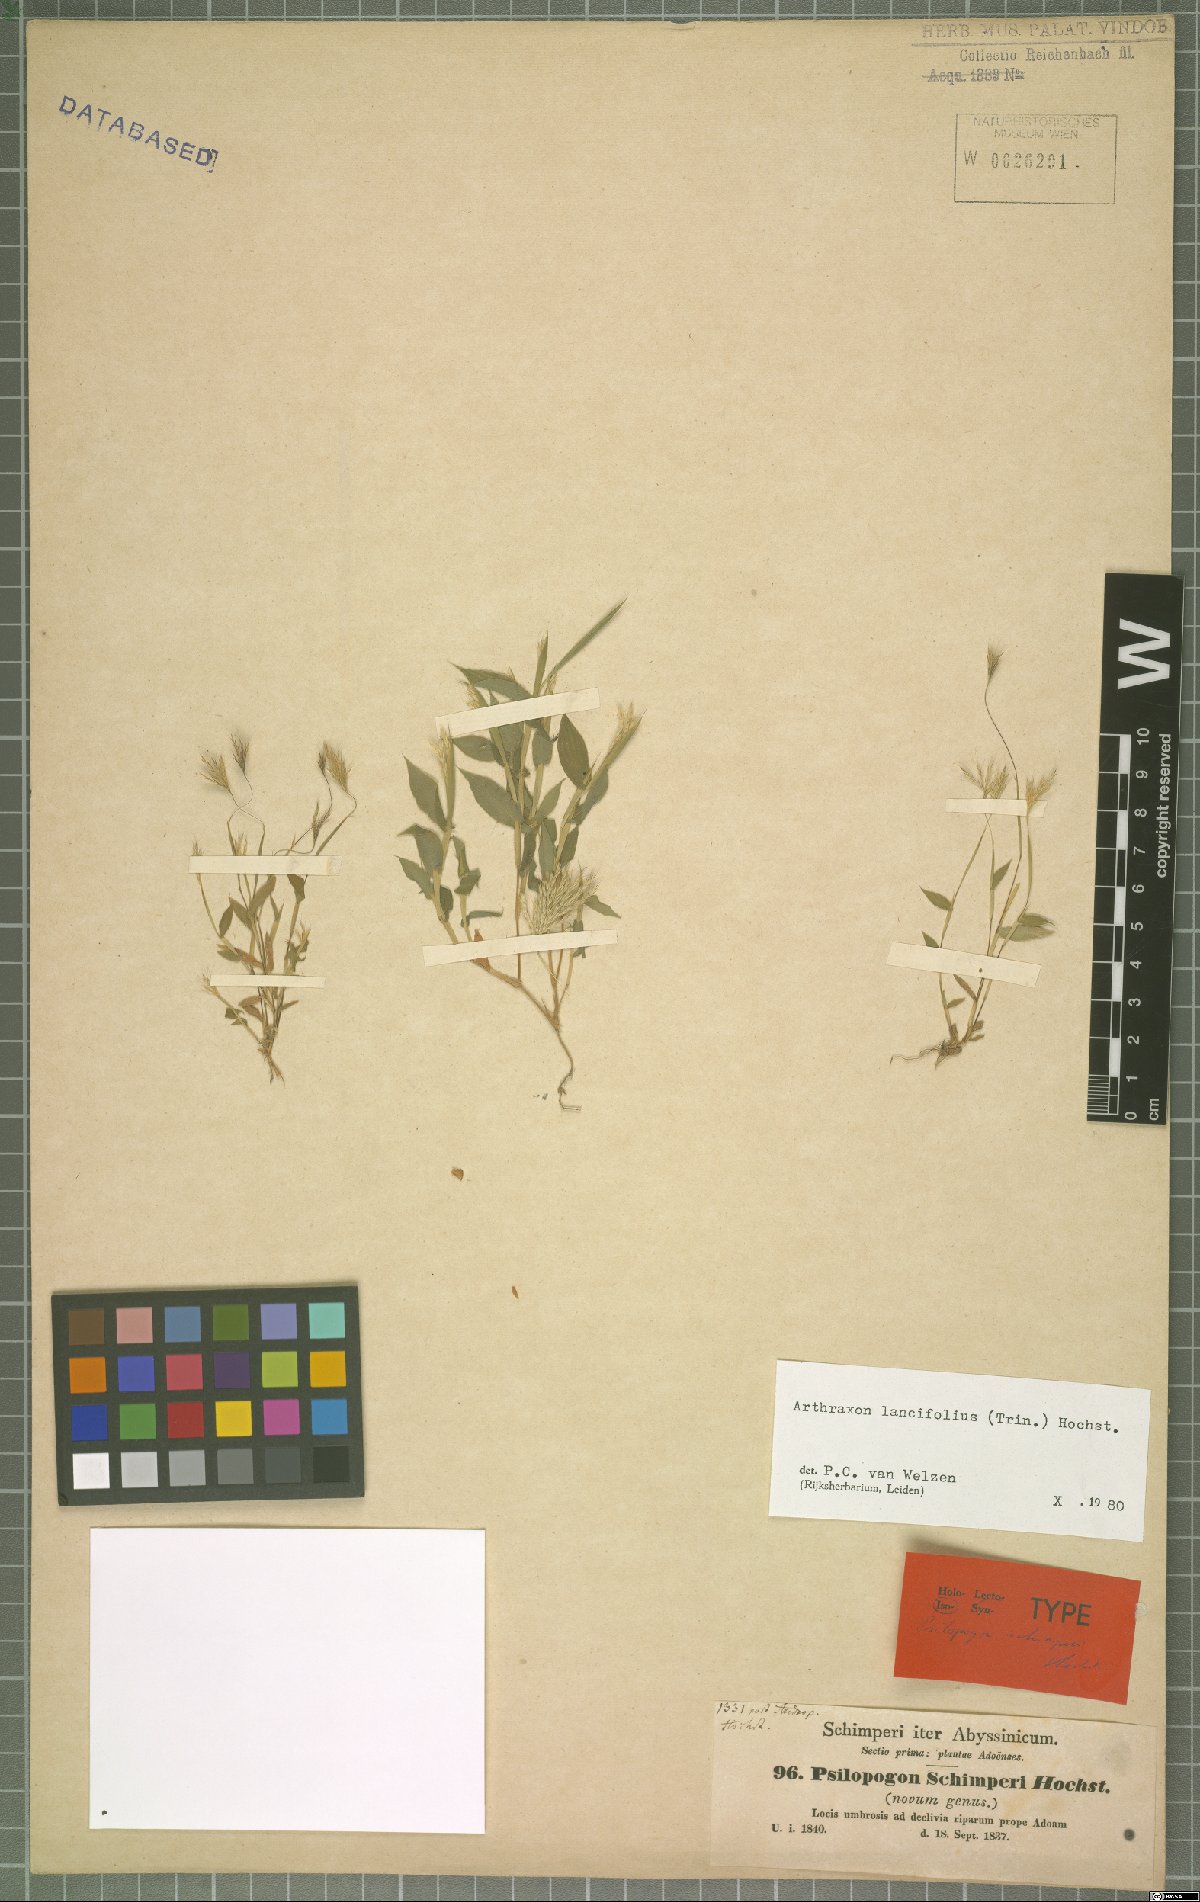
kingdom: Plantae
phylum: Tracheophyta
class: Liliopsida
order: Poales
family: Poaceae
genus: Arthraxon
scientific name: Arthraxon lancifolius
